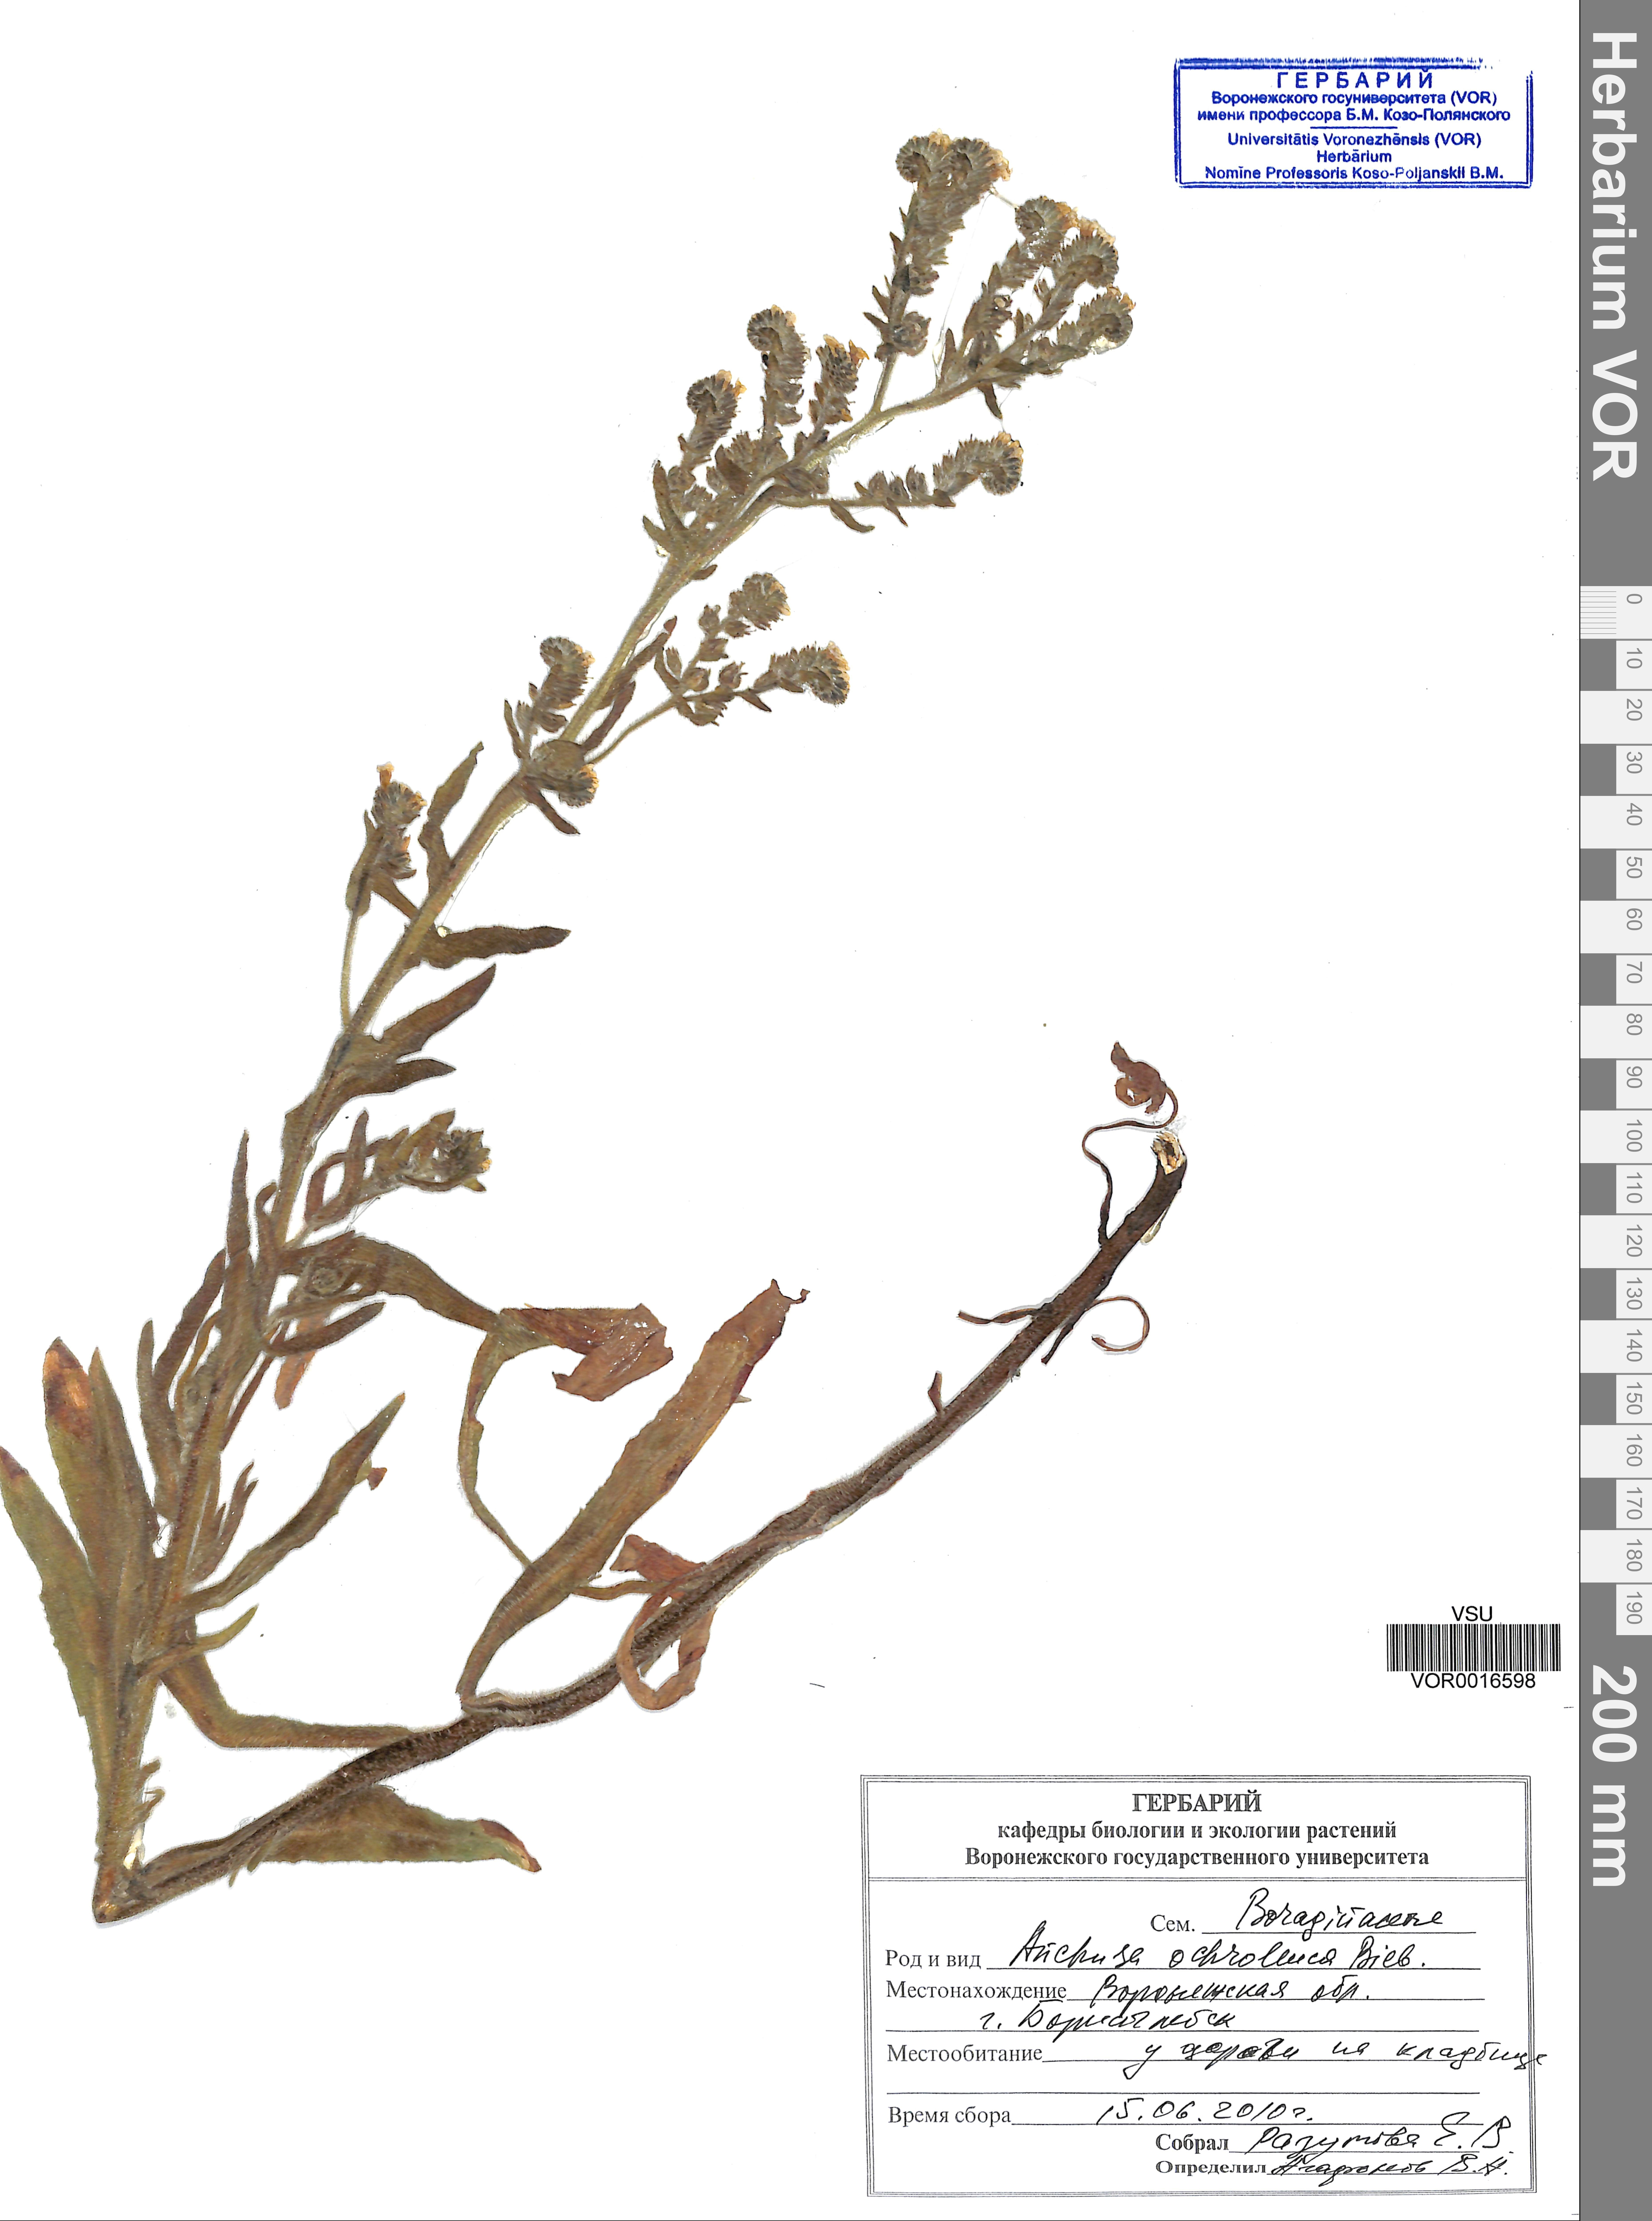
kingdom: Plantae
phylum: Tracheophyta
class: Magnoliopsida
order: Boraginales
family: Boraginaceae
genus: Anchusa
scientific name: Anchusa ochroleuca
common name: Yellow alkanet
